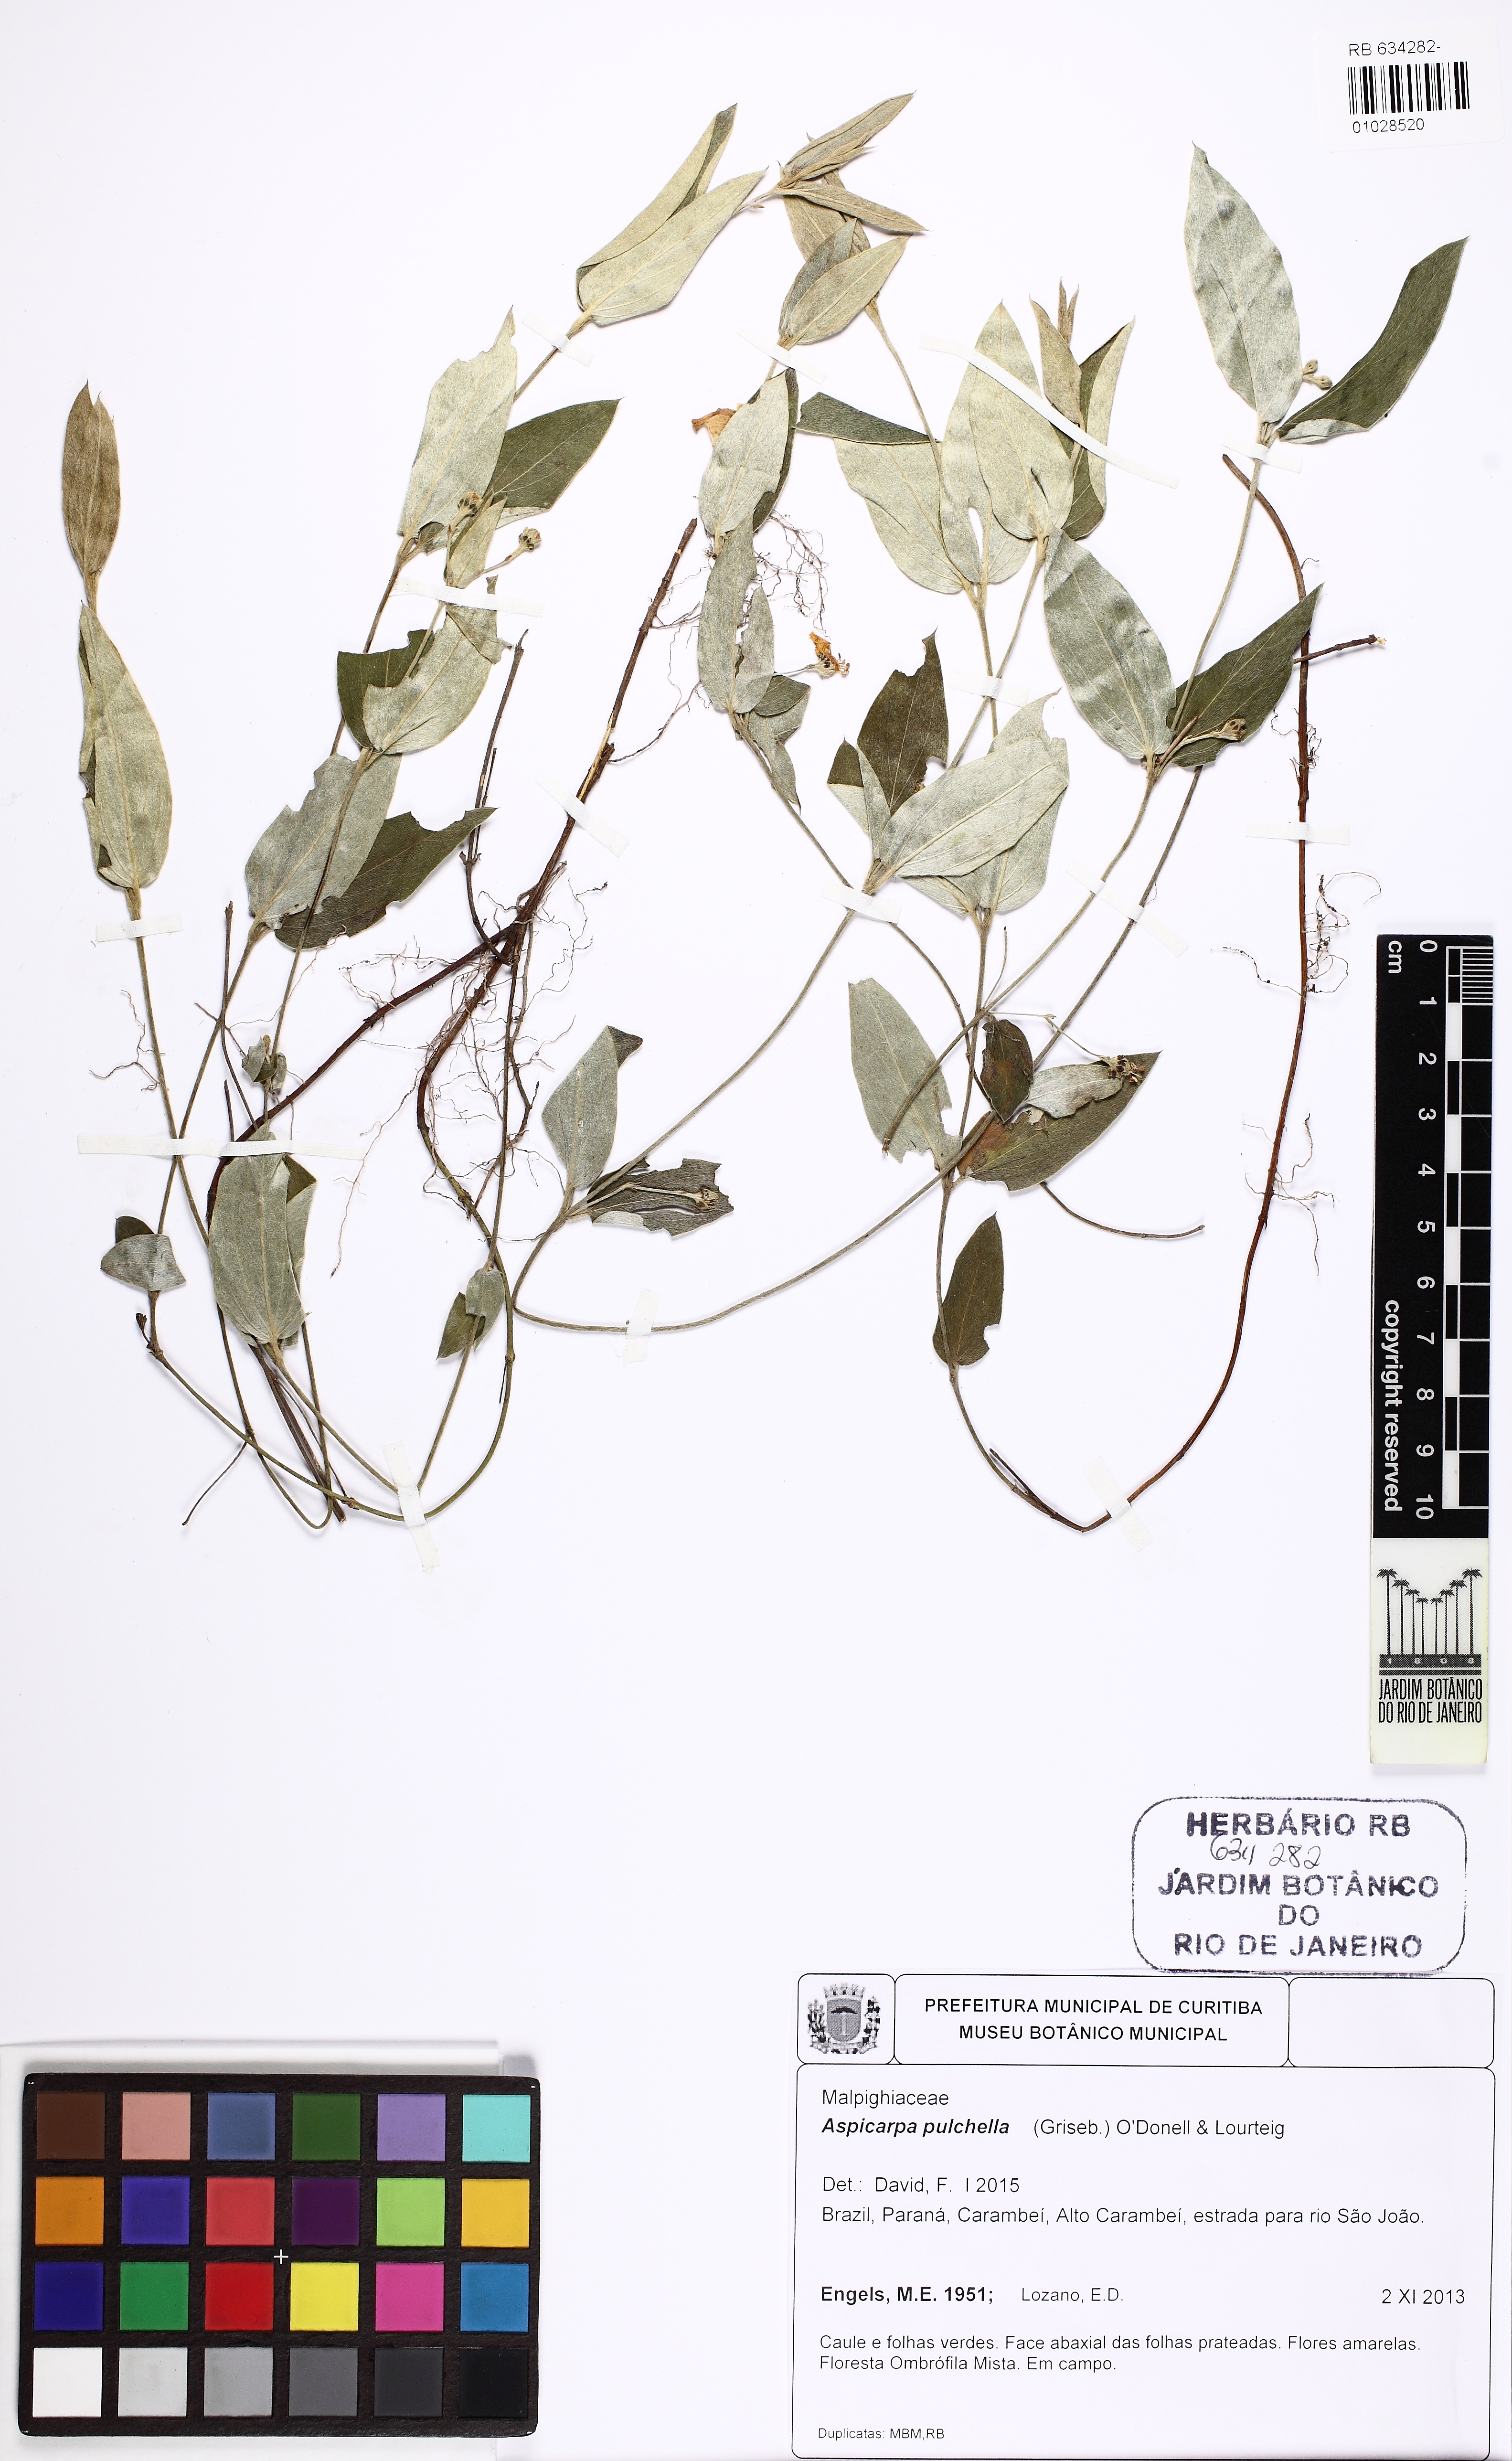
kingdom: Plantae
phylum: Tracheophyta
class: Magnoliopsida
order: Malpighiales
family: Malpighiaceae
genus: Aspicarpa
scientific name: Aspicarpa pulchella
